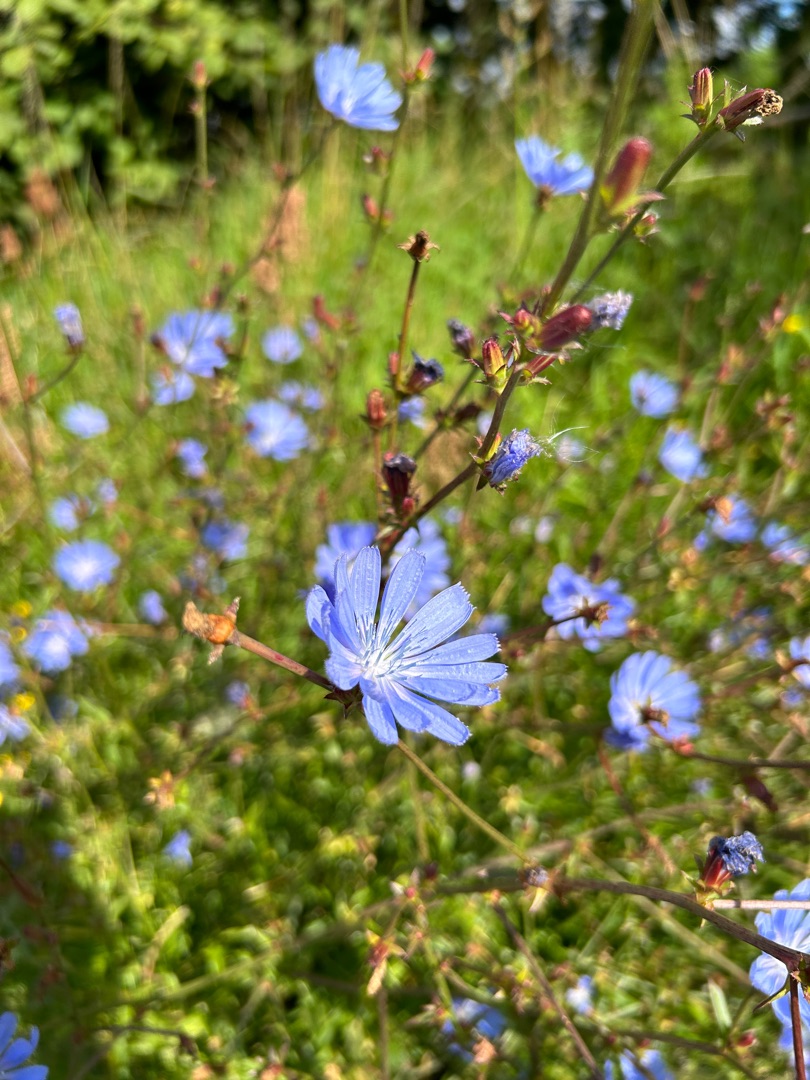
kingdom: Plantae
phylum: Tracheophyta
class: Magnoliopsida
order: Asterales
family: Asteraceae
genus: Cichorium
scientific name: Cichorium intybus
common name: Cikorie
